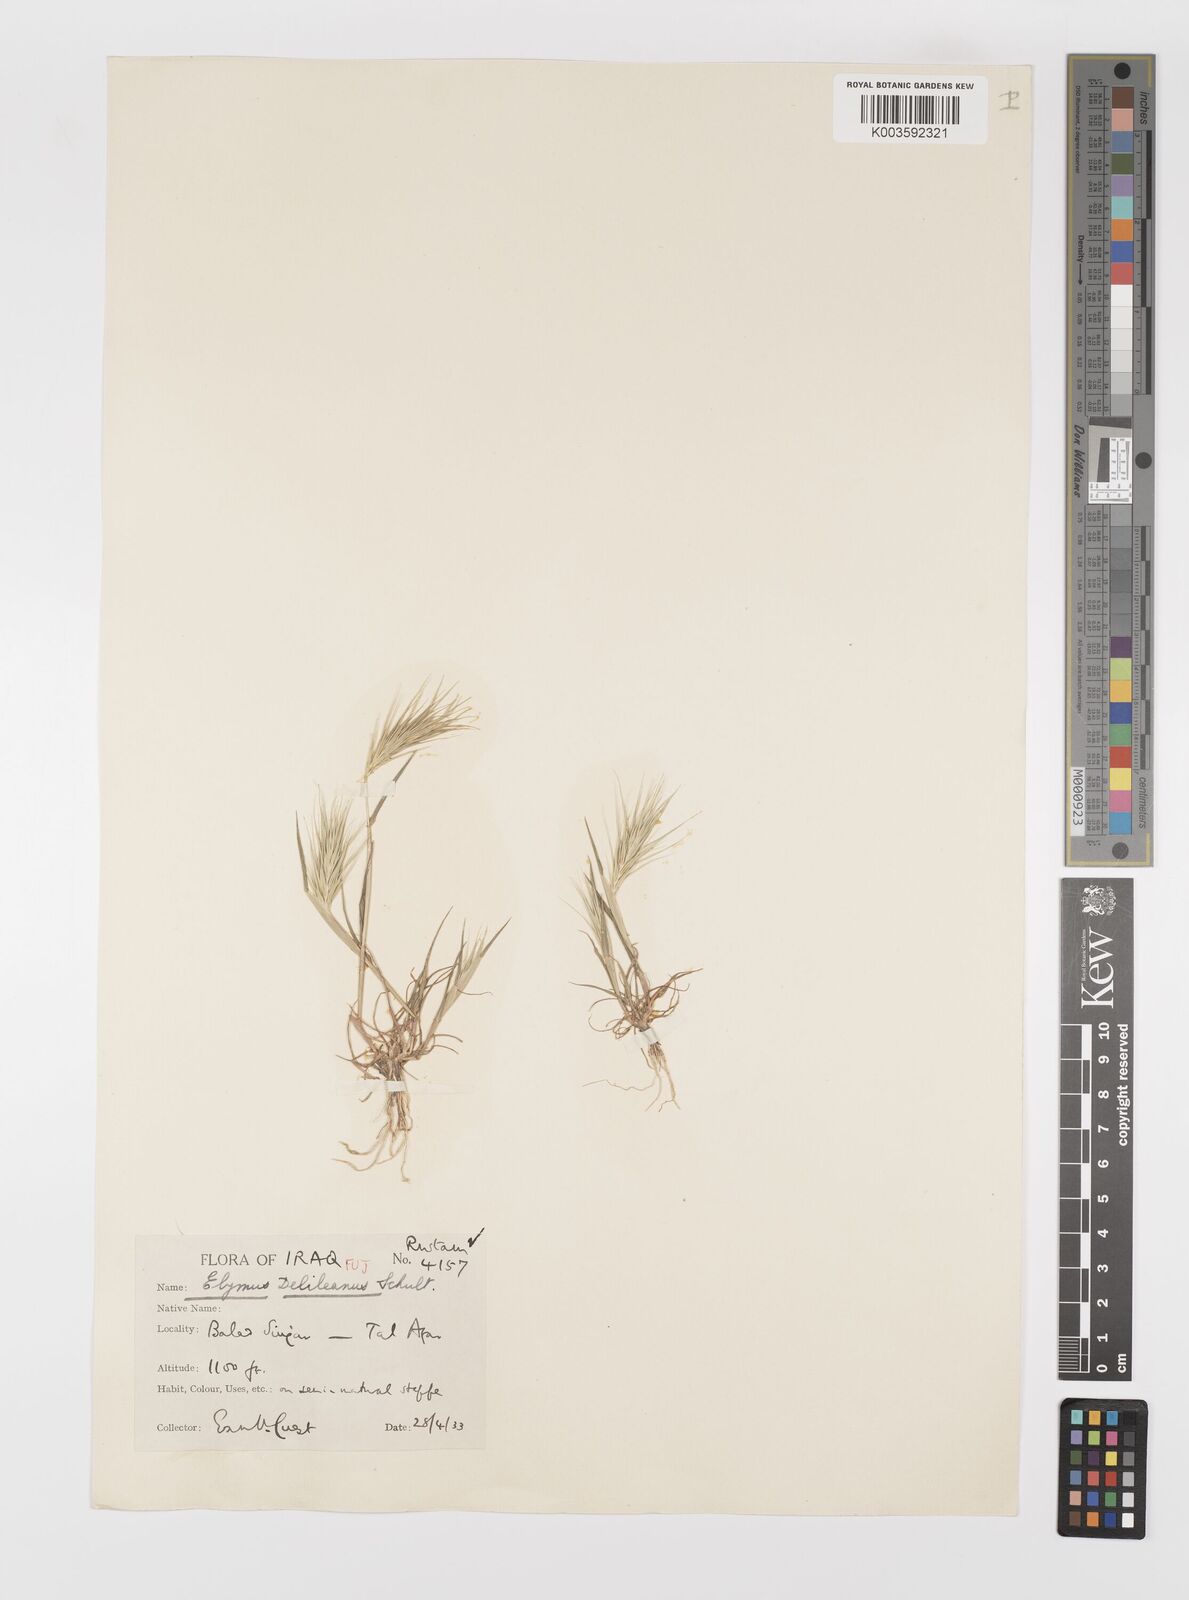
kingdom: Plantae
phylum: Tracheophyta
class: Liliopsida
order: Poales
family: Poaceae
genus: Crithopsis
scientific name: Crithopsis delileana
